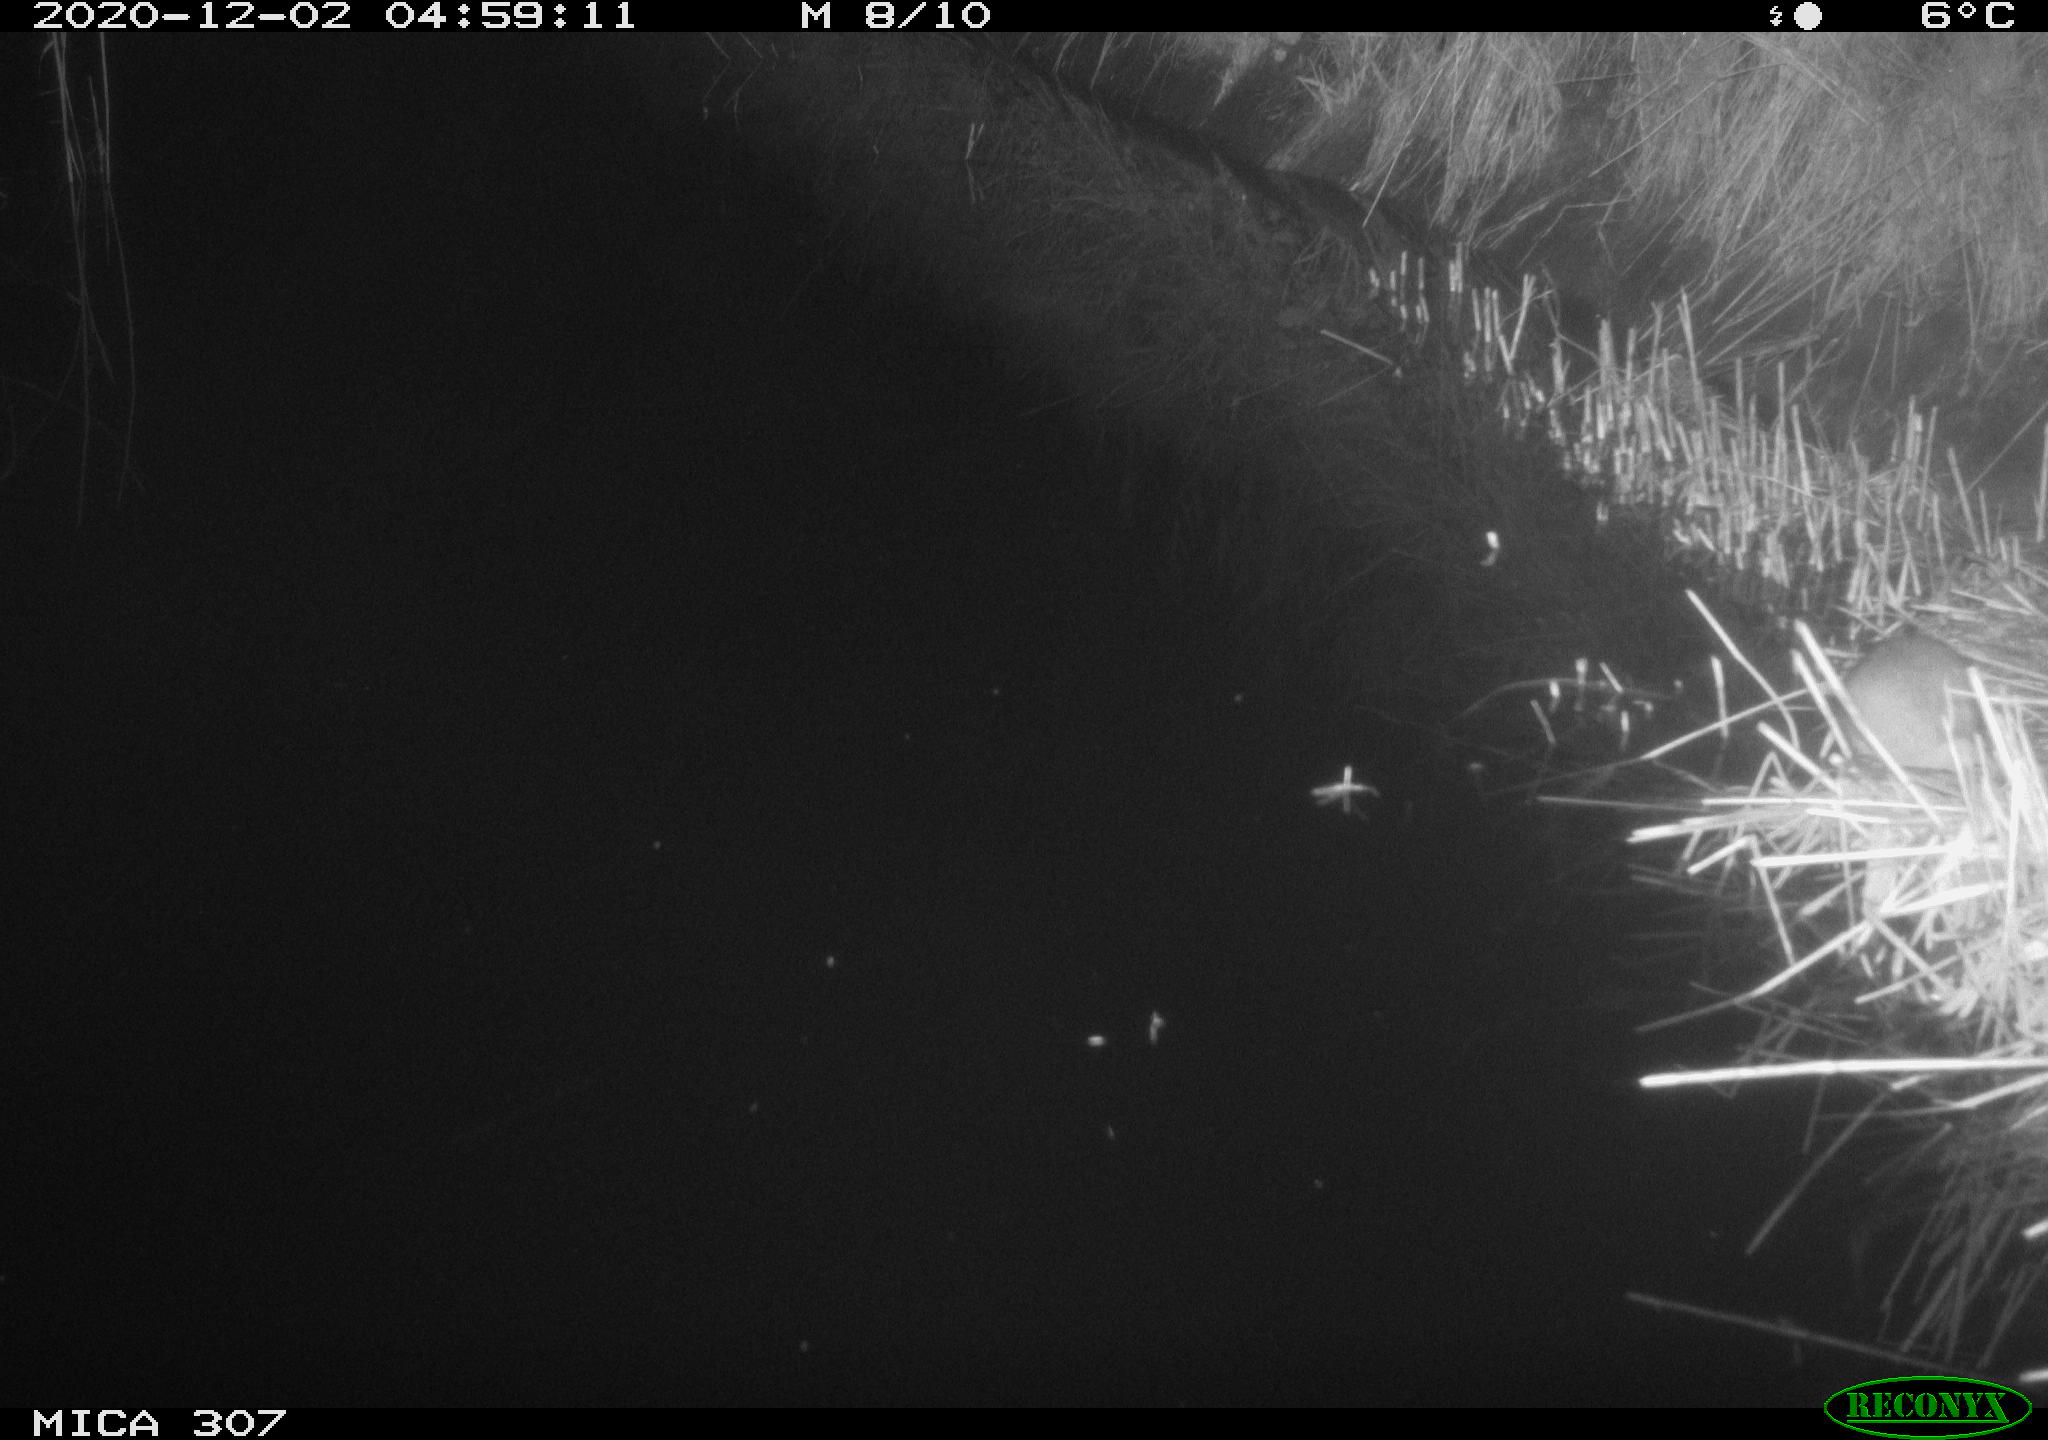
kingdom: Animalia
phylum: Chordata
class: Mammalia
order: Rodentia
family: Muridae
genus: Rattus
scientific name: Rattus norvegicus
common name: Brown rat
